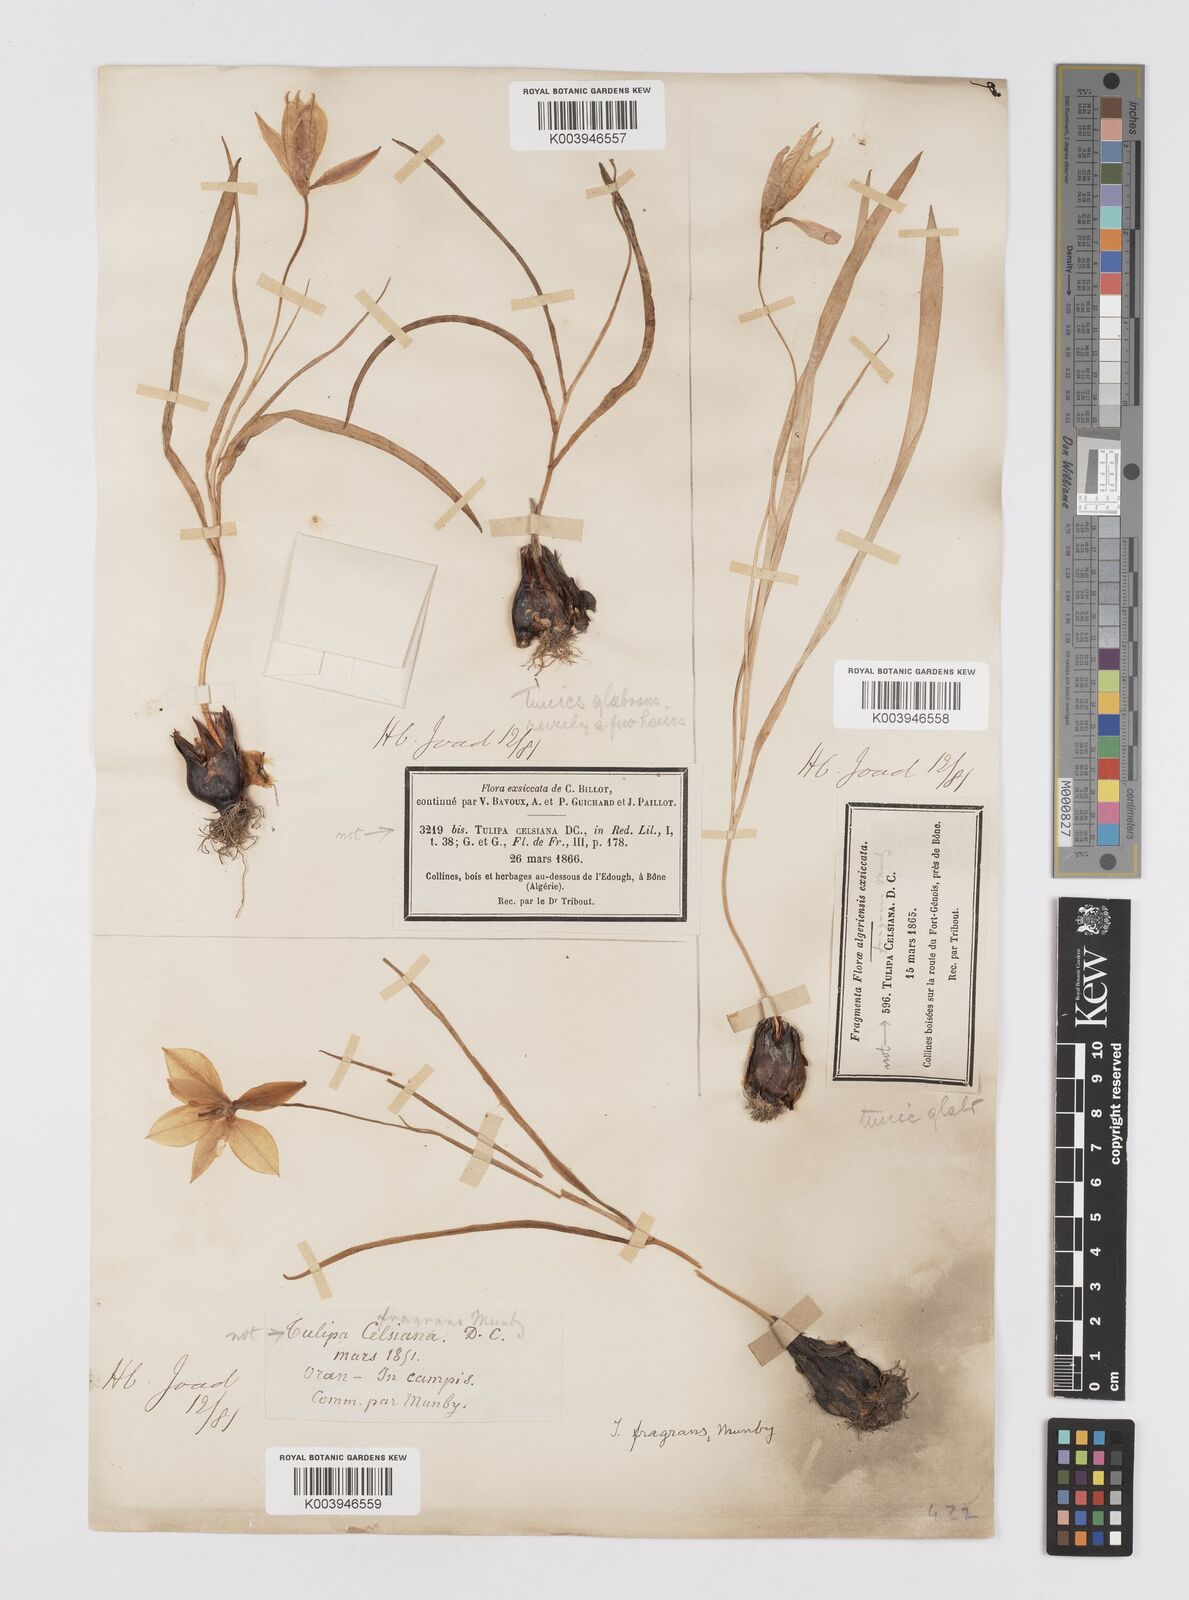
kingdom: Plantae
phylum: Tracheophyta
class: Liliopsida
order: Liliales
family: Liliaceae
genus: Tulipa
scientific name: Tulipa sylvestris
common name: Wild tulip
